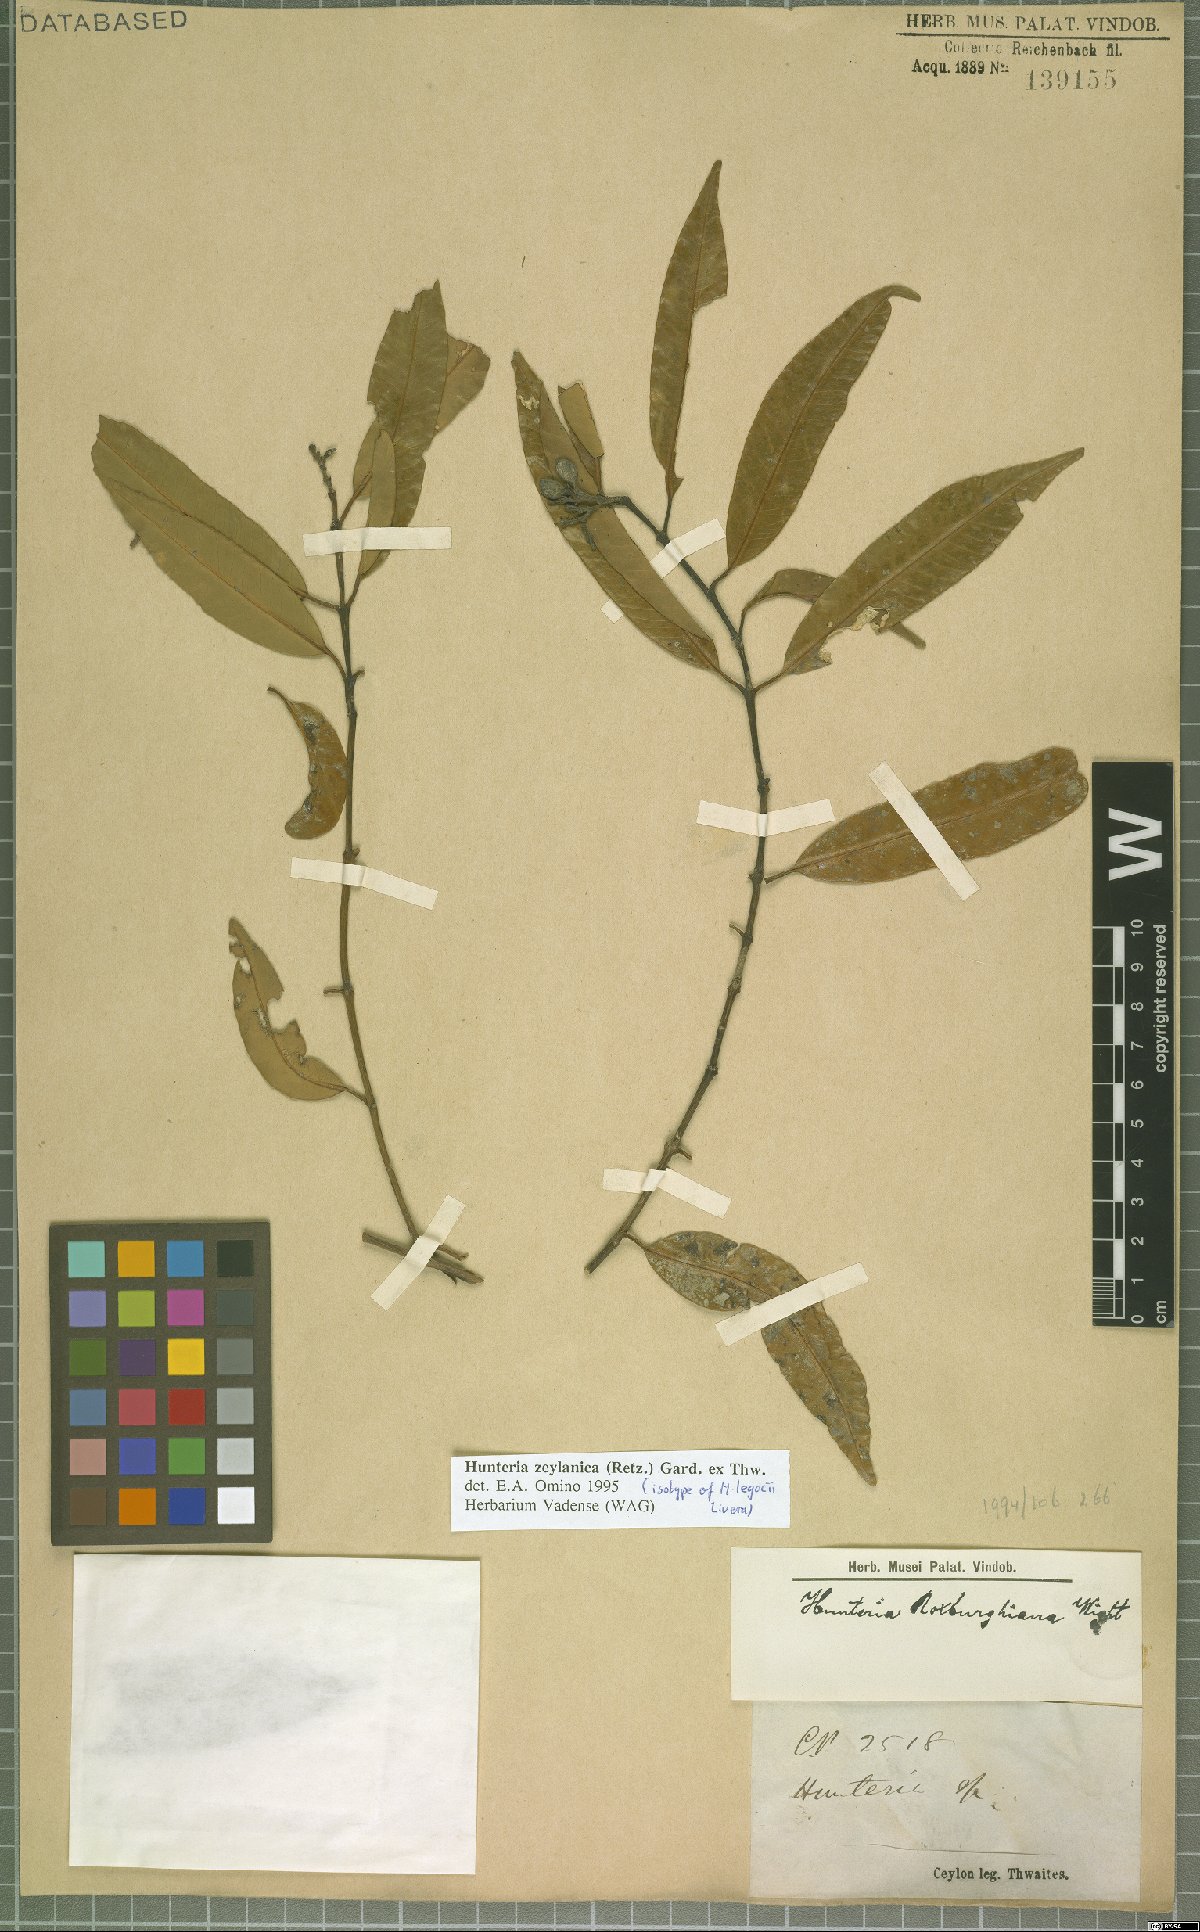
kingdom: Plantae
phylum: Tracheophyta
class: Magnoliopsida
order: Gentianales
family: Apocynaceae
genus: Hunteria
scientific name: Hunteria zeylanica
